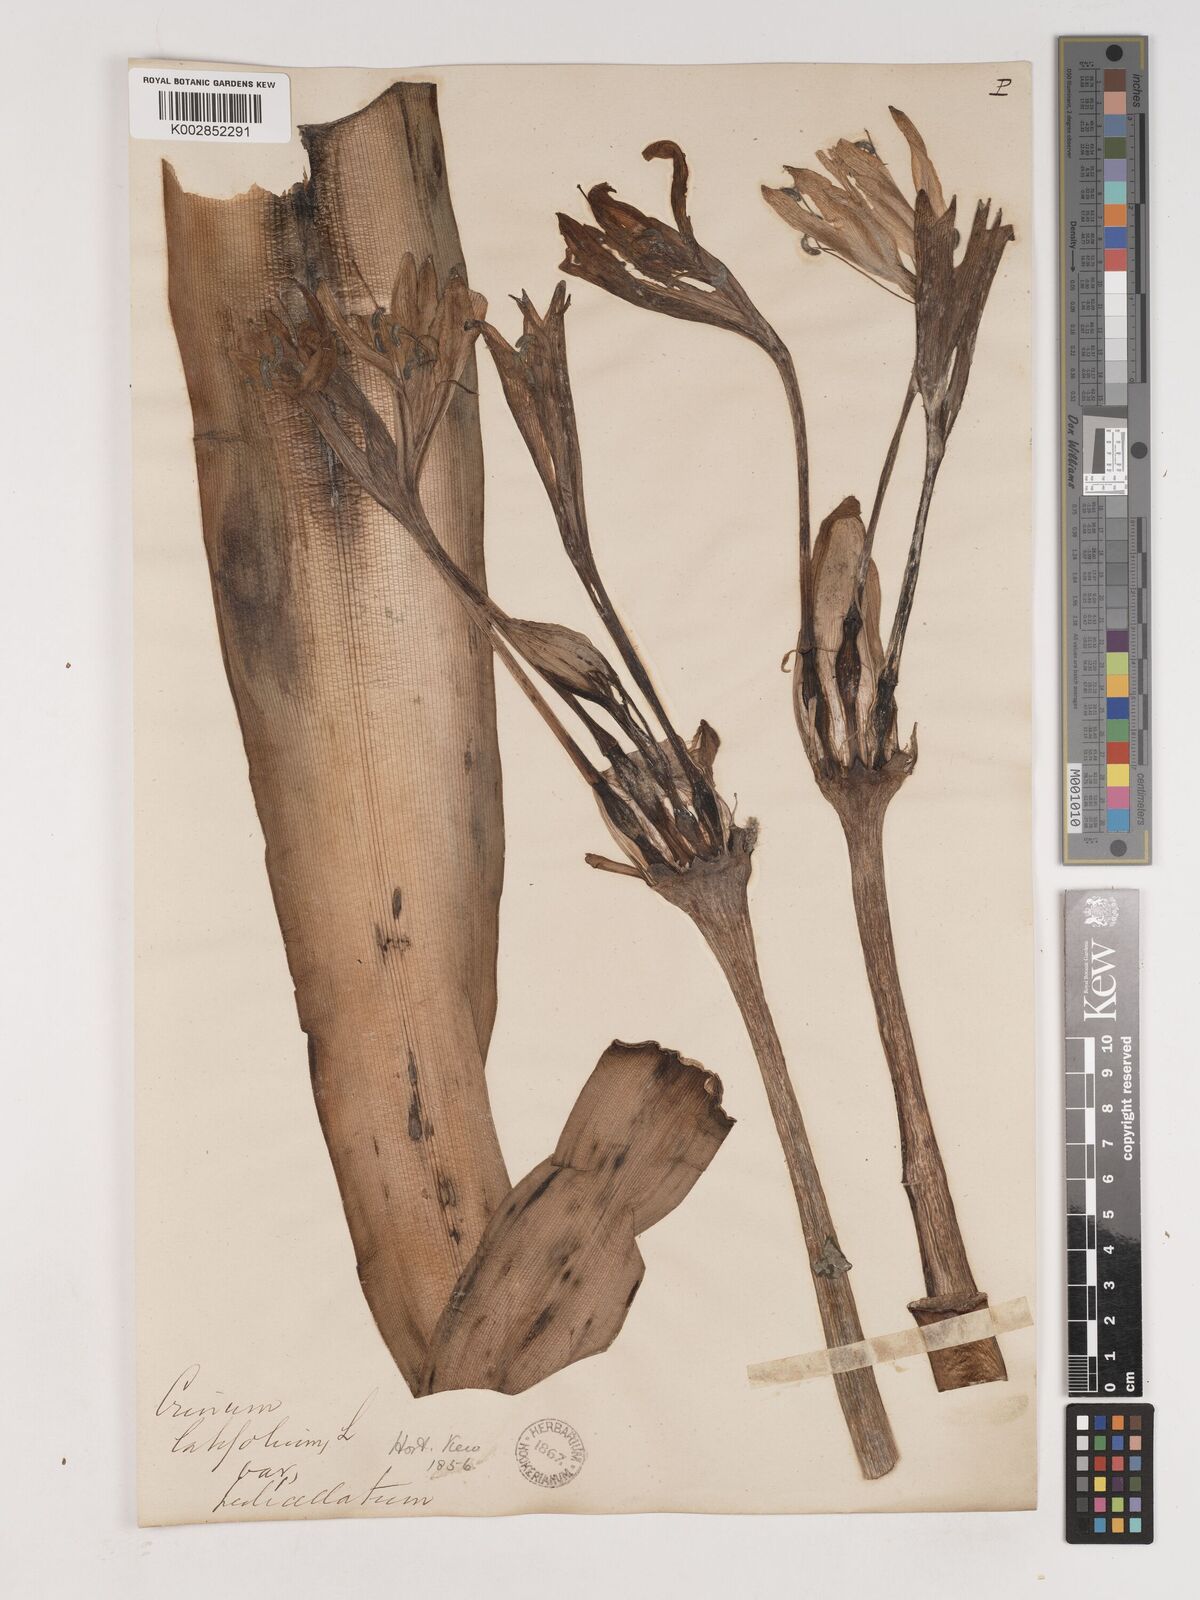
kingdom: Plantae
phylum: Tracheophyta
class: Liliopsida
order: Asparagales
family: Amaryllidaceae
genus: Crinum
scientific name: Crinum
